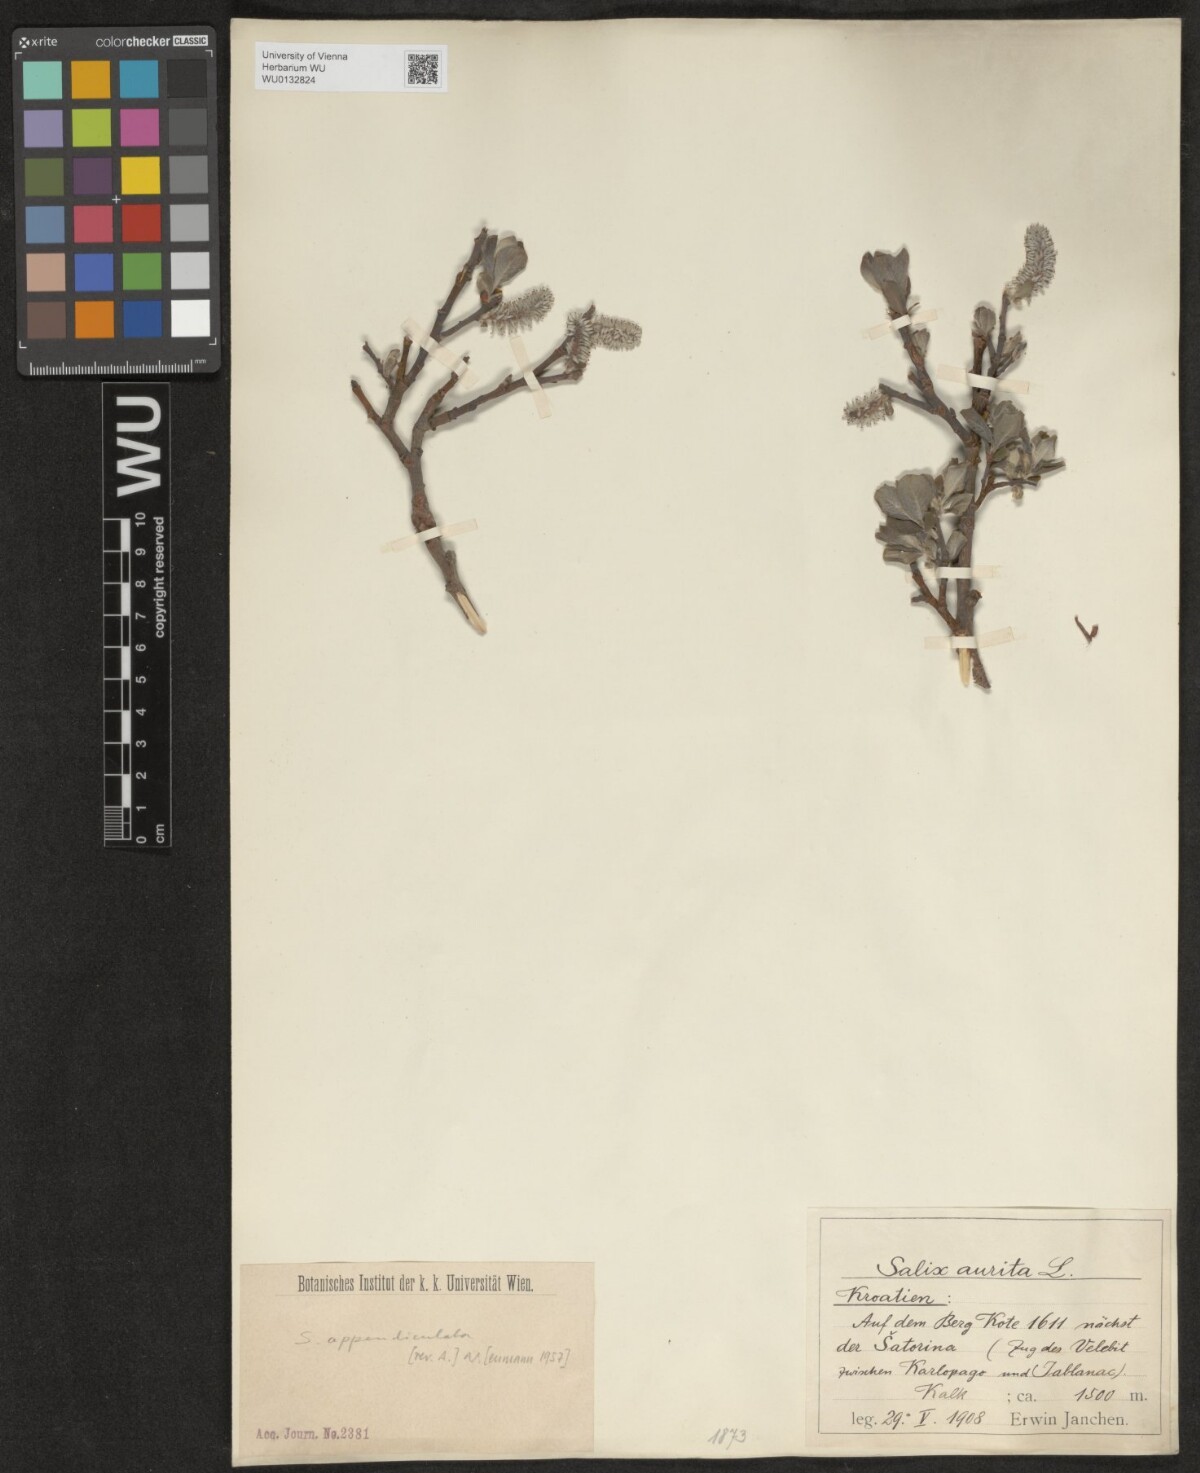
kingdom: Plantae
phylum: Tracheophyta
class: Magnoliopsida
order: Malpighiales
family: Salicaceae
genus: Salix
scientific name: Salix appendiculata
